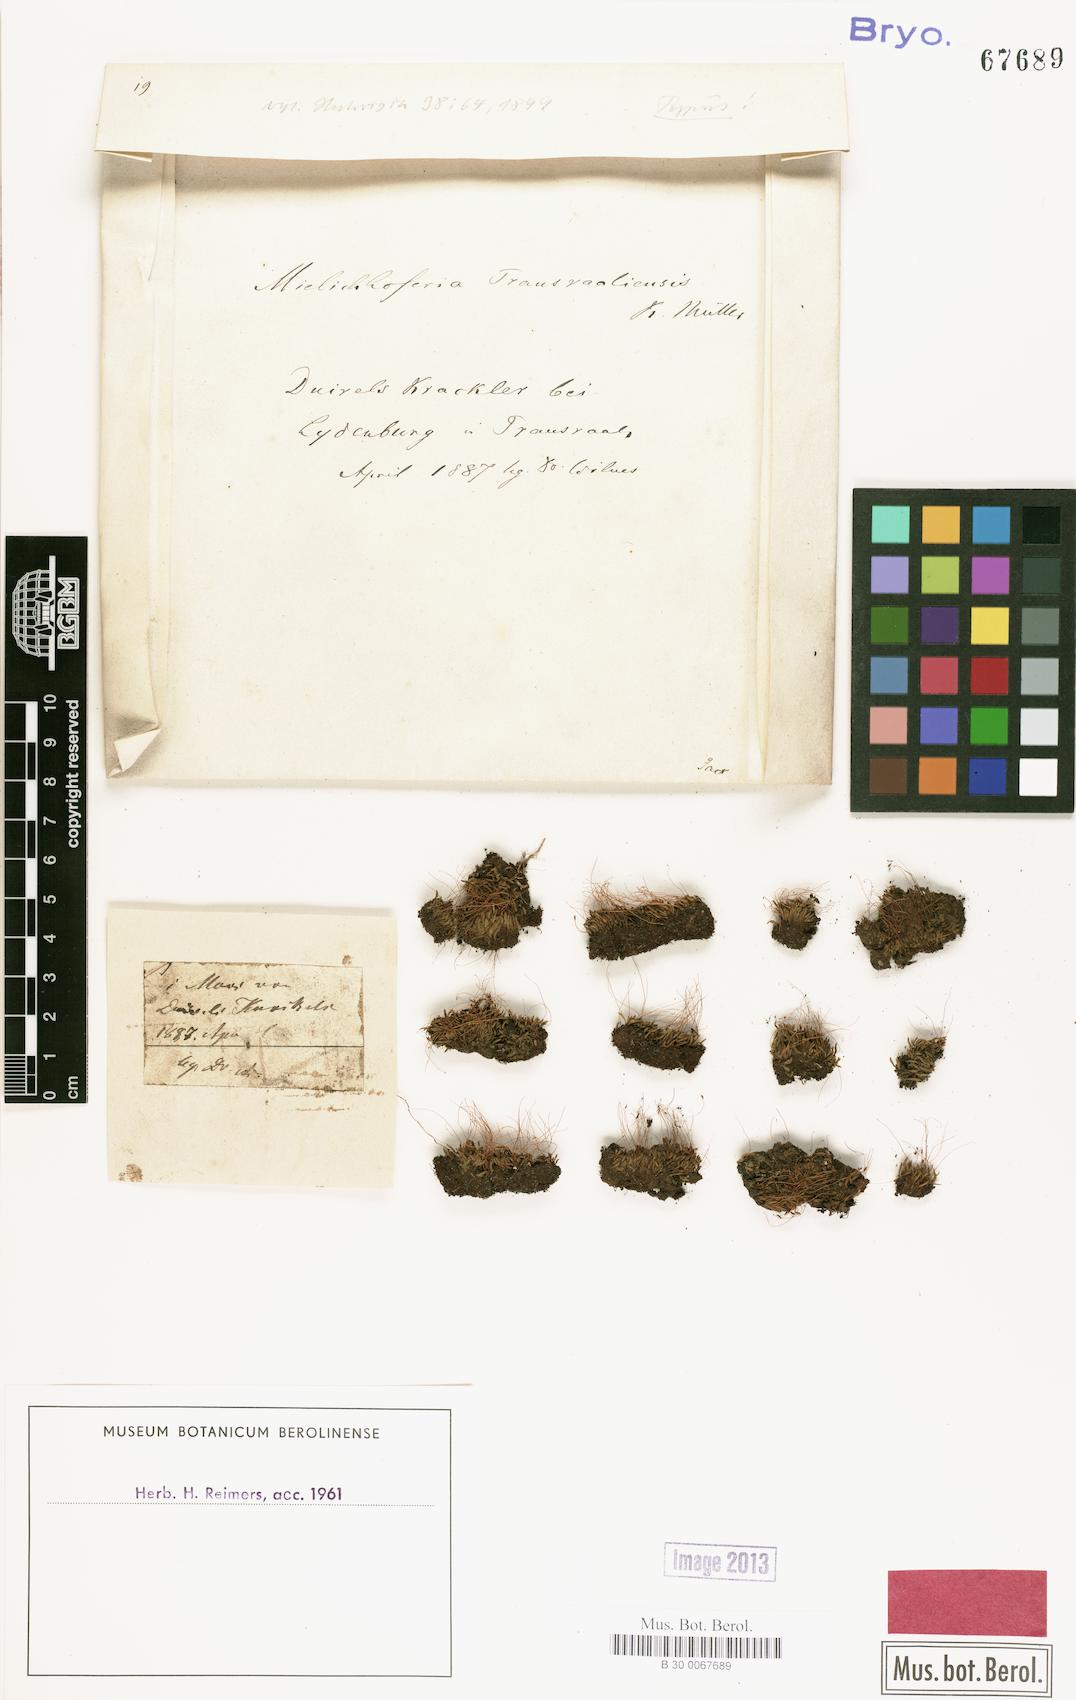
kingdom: Plantae
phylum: Bryophyta
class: Bryopsida
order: Bryales
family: Mniaceae
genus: Schizymenium
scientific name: Schizymenium bryoides
